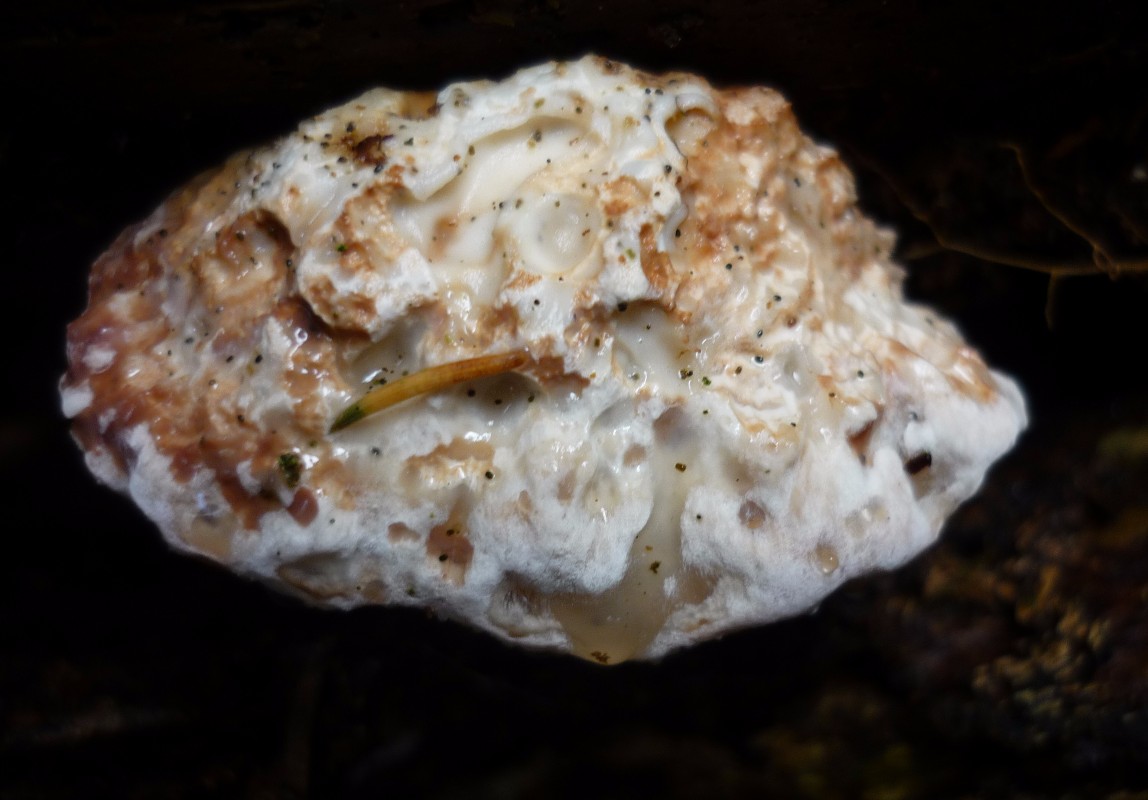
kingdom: Fungi
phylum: Basidiomycota
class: Agaricomycetes
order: Polyporales
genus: Calcipostia
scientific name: Calcipostia guttulata
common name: dråbe-kødporesvamp
